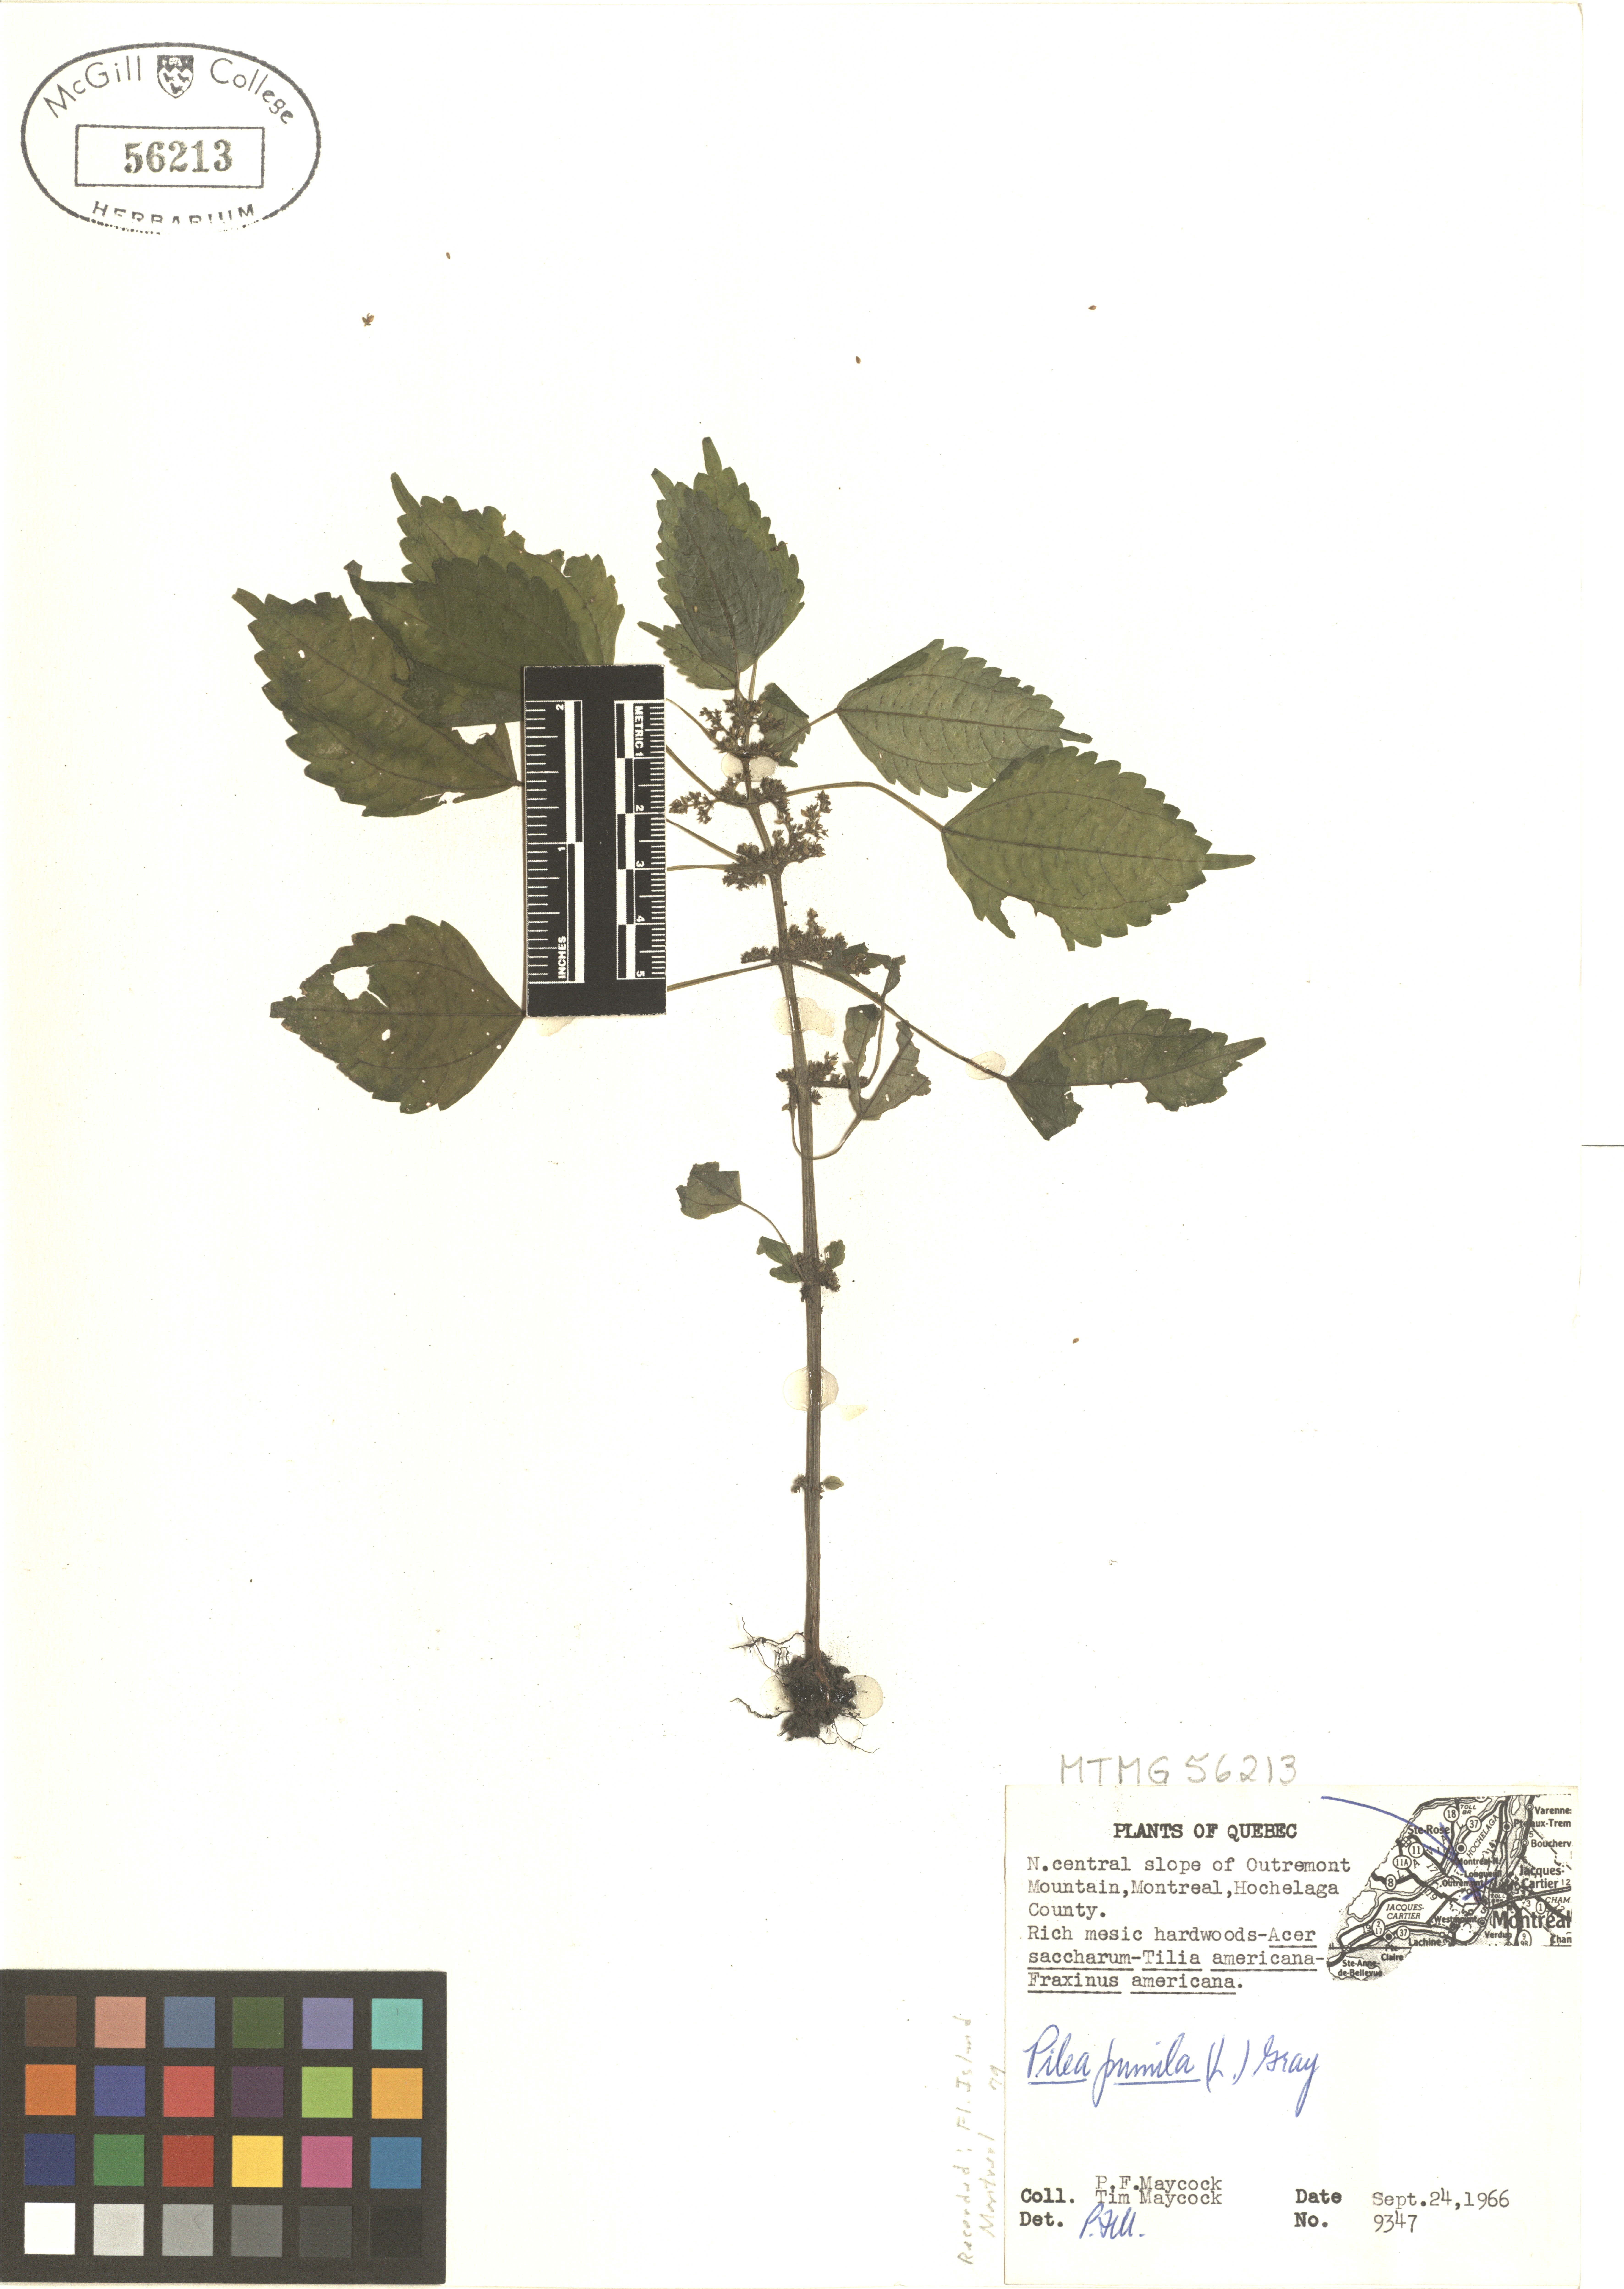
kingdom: Plantae
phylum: Tracheophyta
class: Magnoliopsida
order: Rosales
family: Urticaceae
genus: Pilea
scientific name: Pilea pumila
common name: Clearweed
